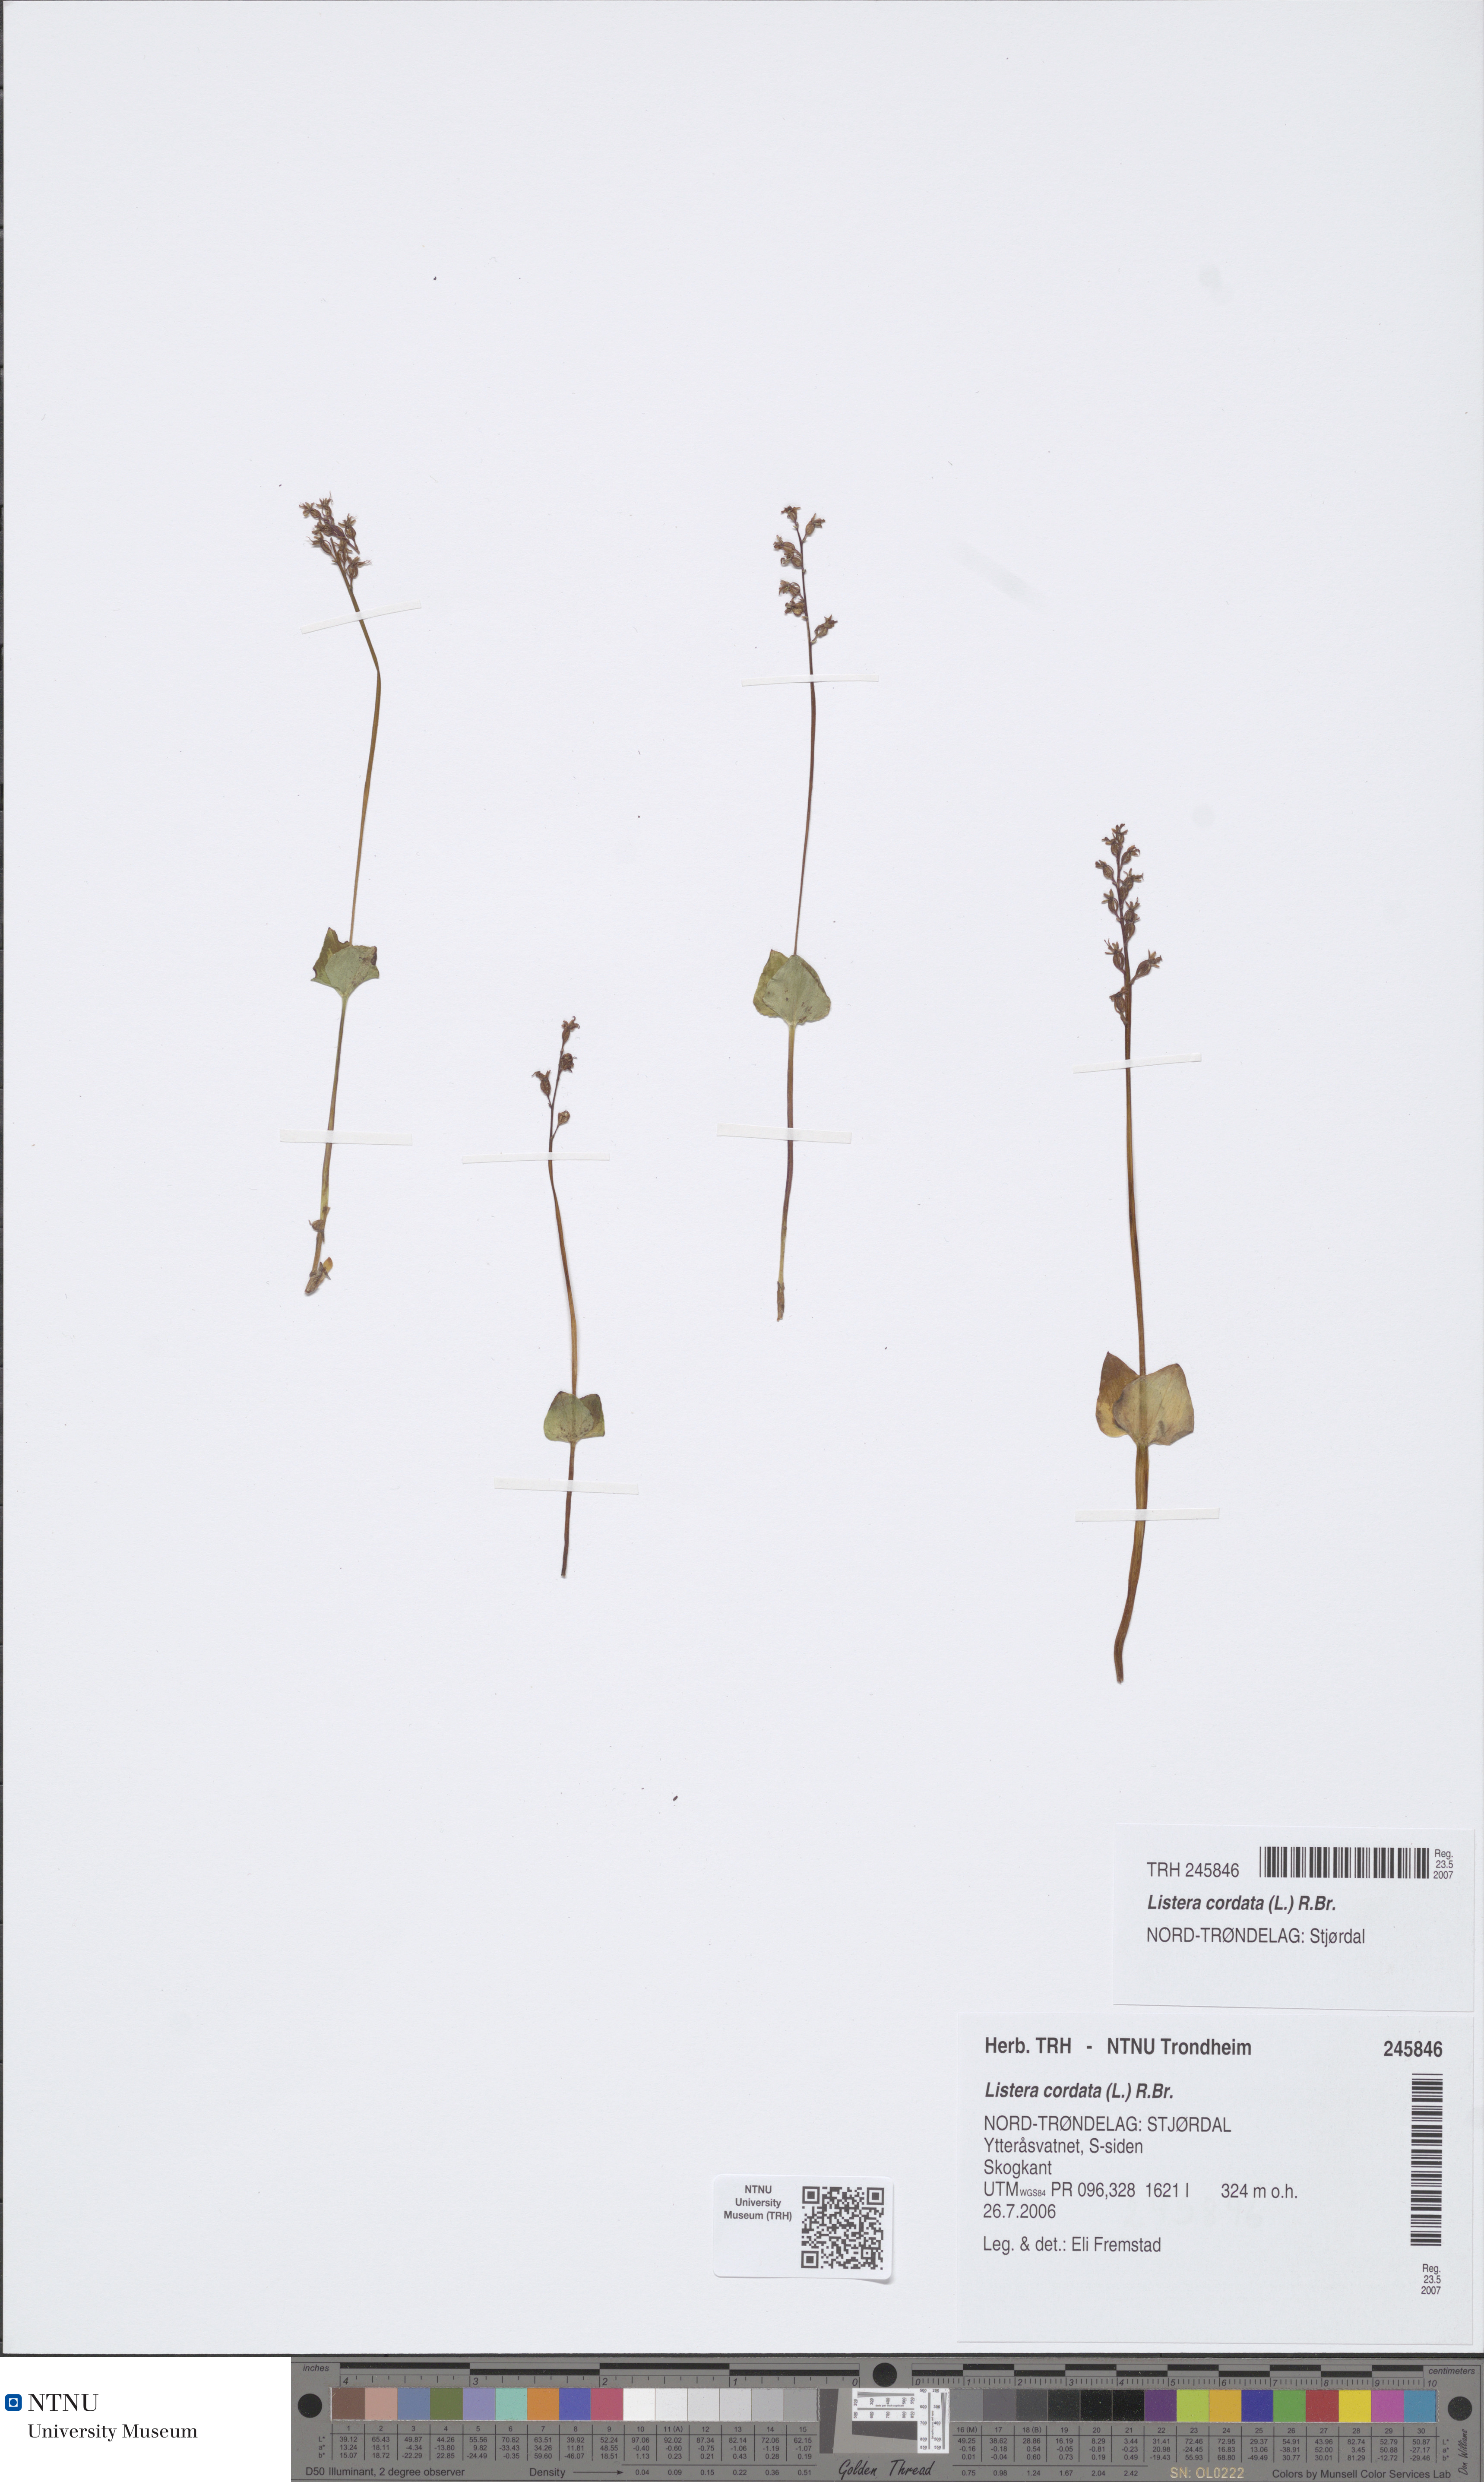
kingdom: Plantae
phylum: Tracheophyta
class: Liliopsida
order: Asparagales
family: Orchidaceae
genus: Neottia
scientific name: Neottia cordata
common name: Lesser twayblade
